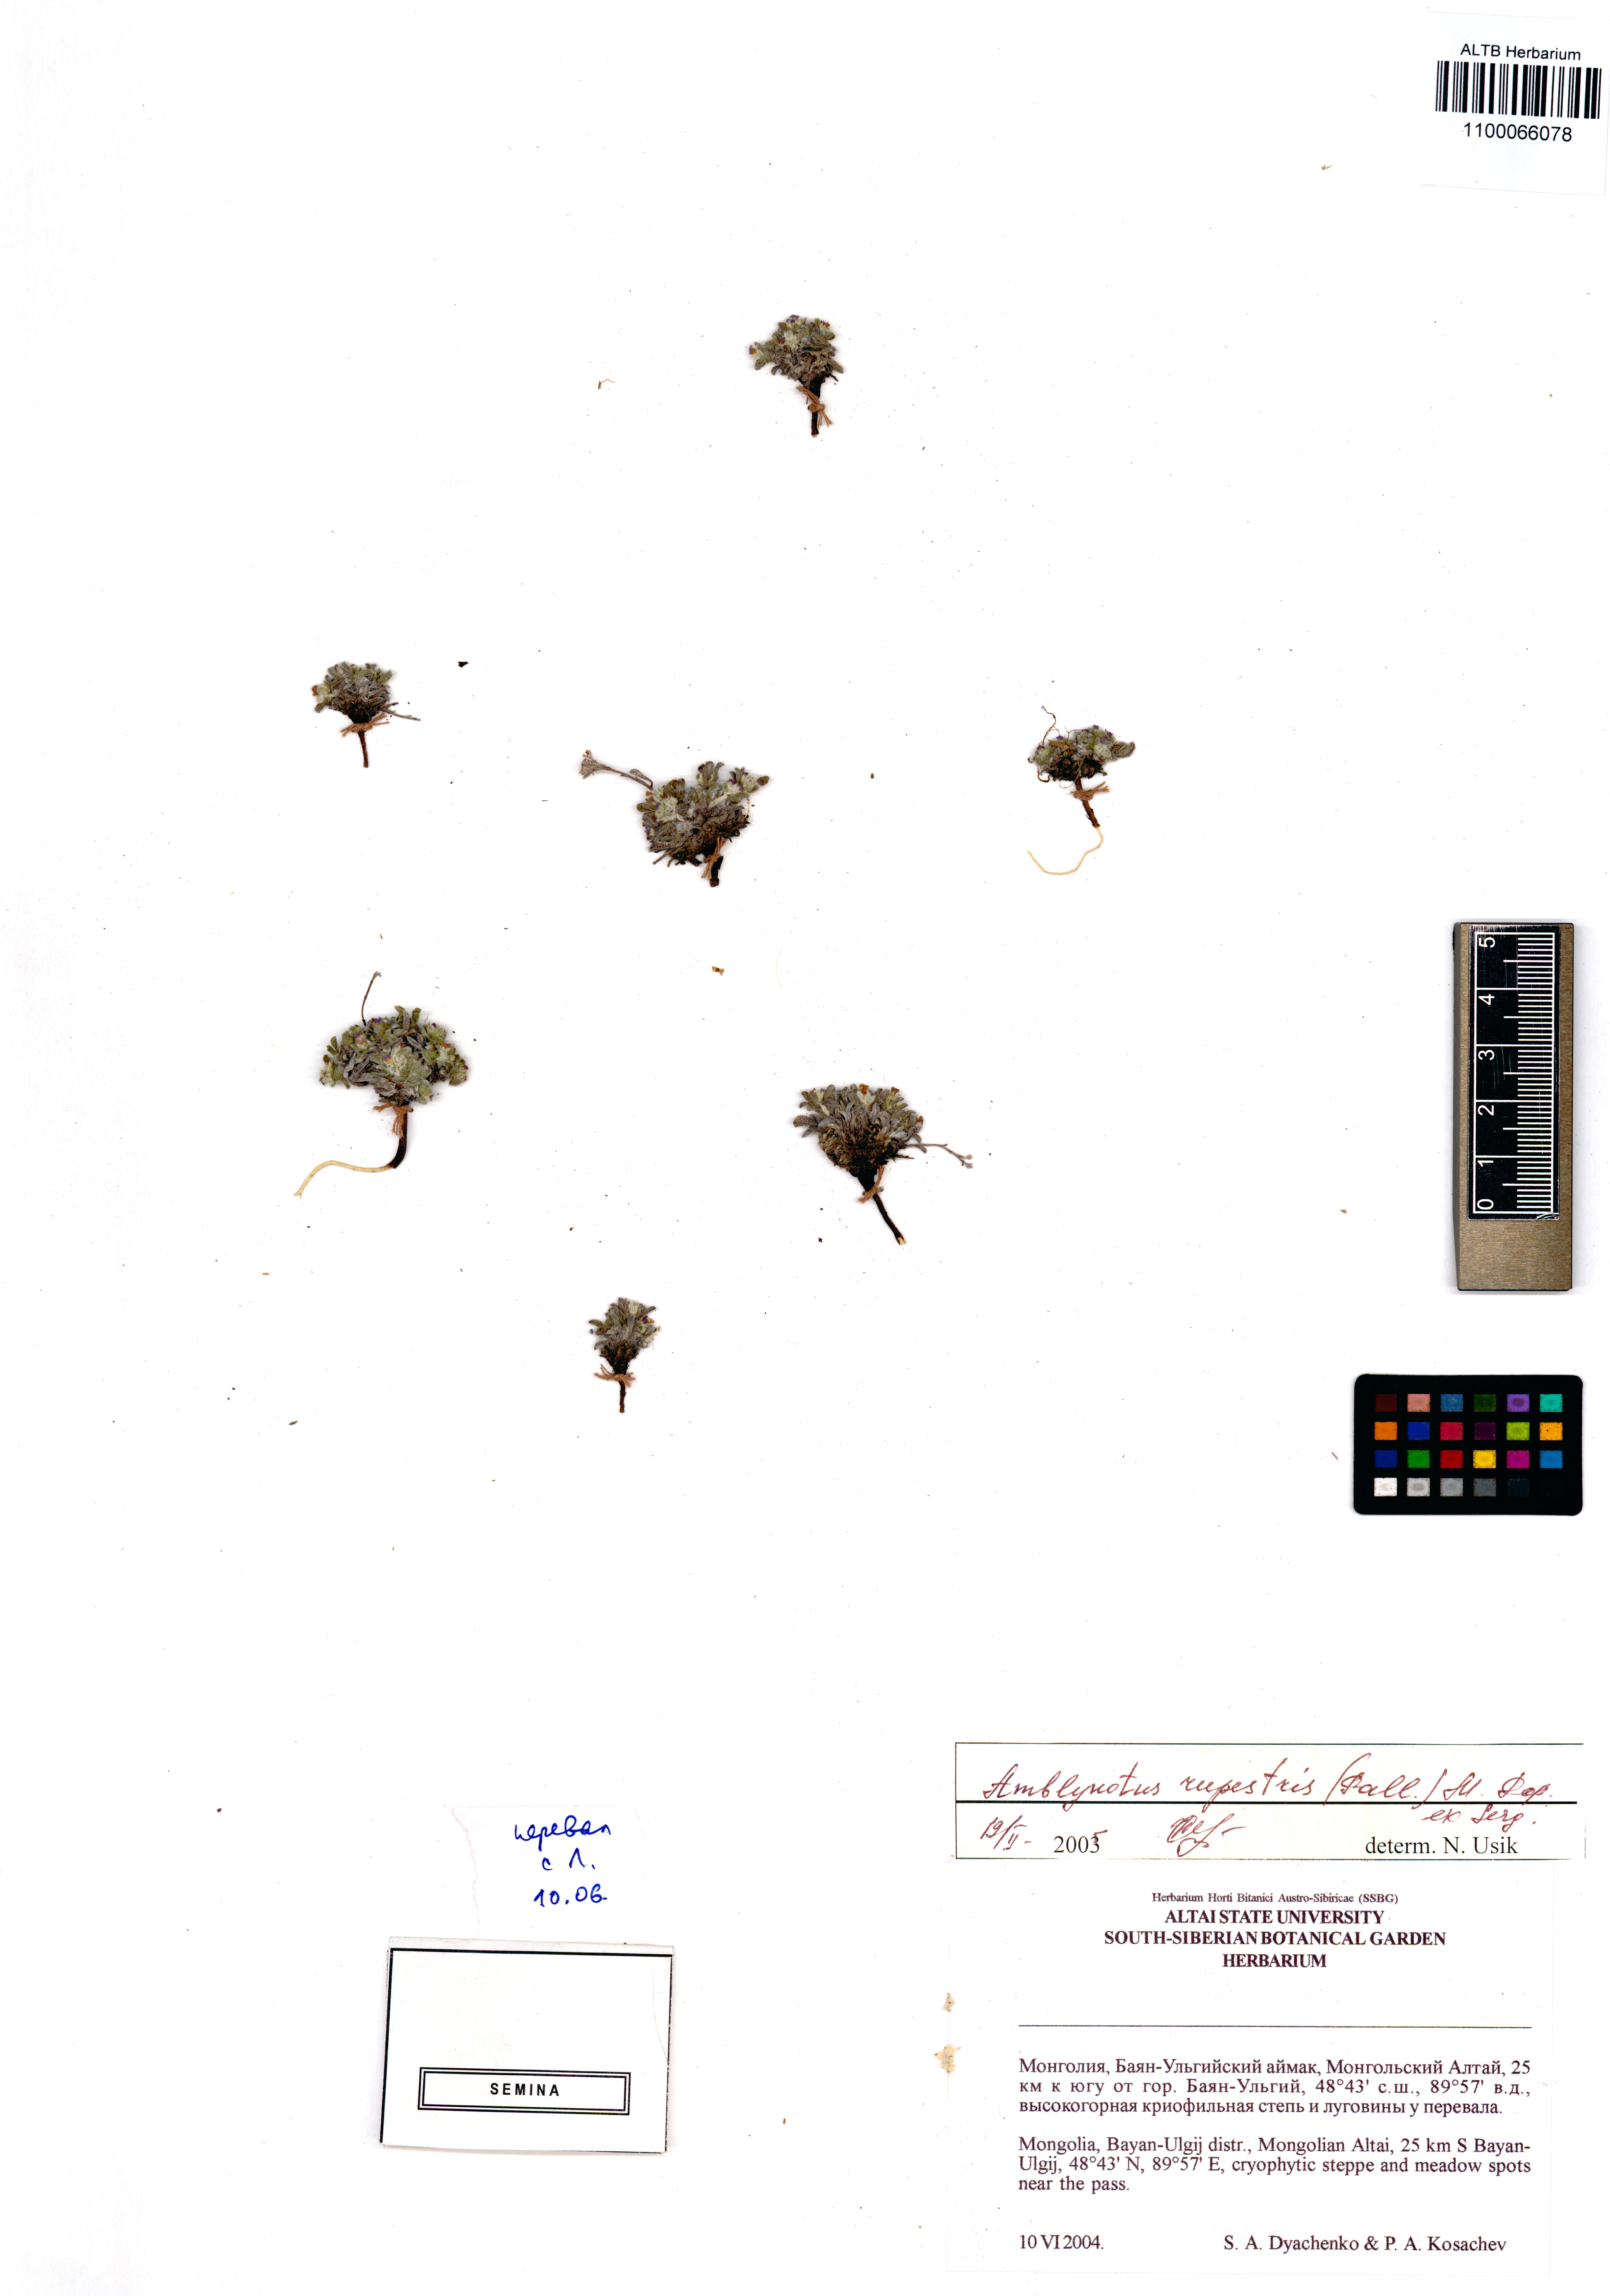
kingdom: Plantae
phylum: Tracheophyta
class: Magnoliopsida
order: Boraginales
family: Boraginaceae
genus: Eritrichium
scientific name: Eritrichium rupestre
